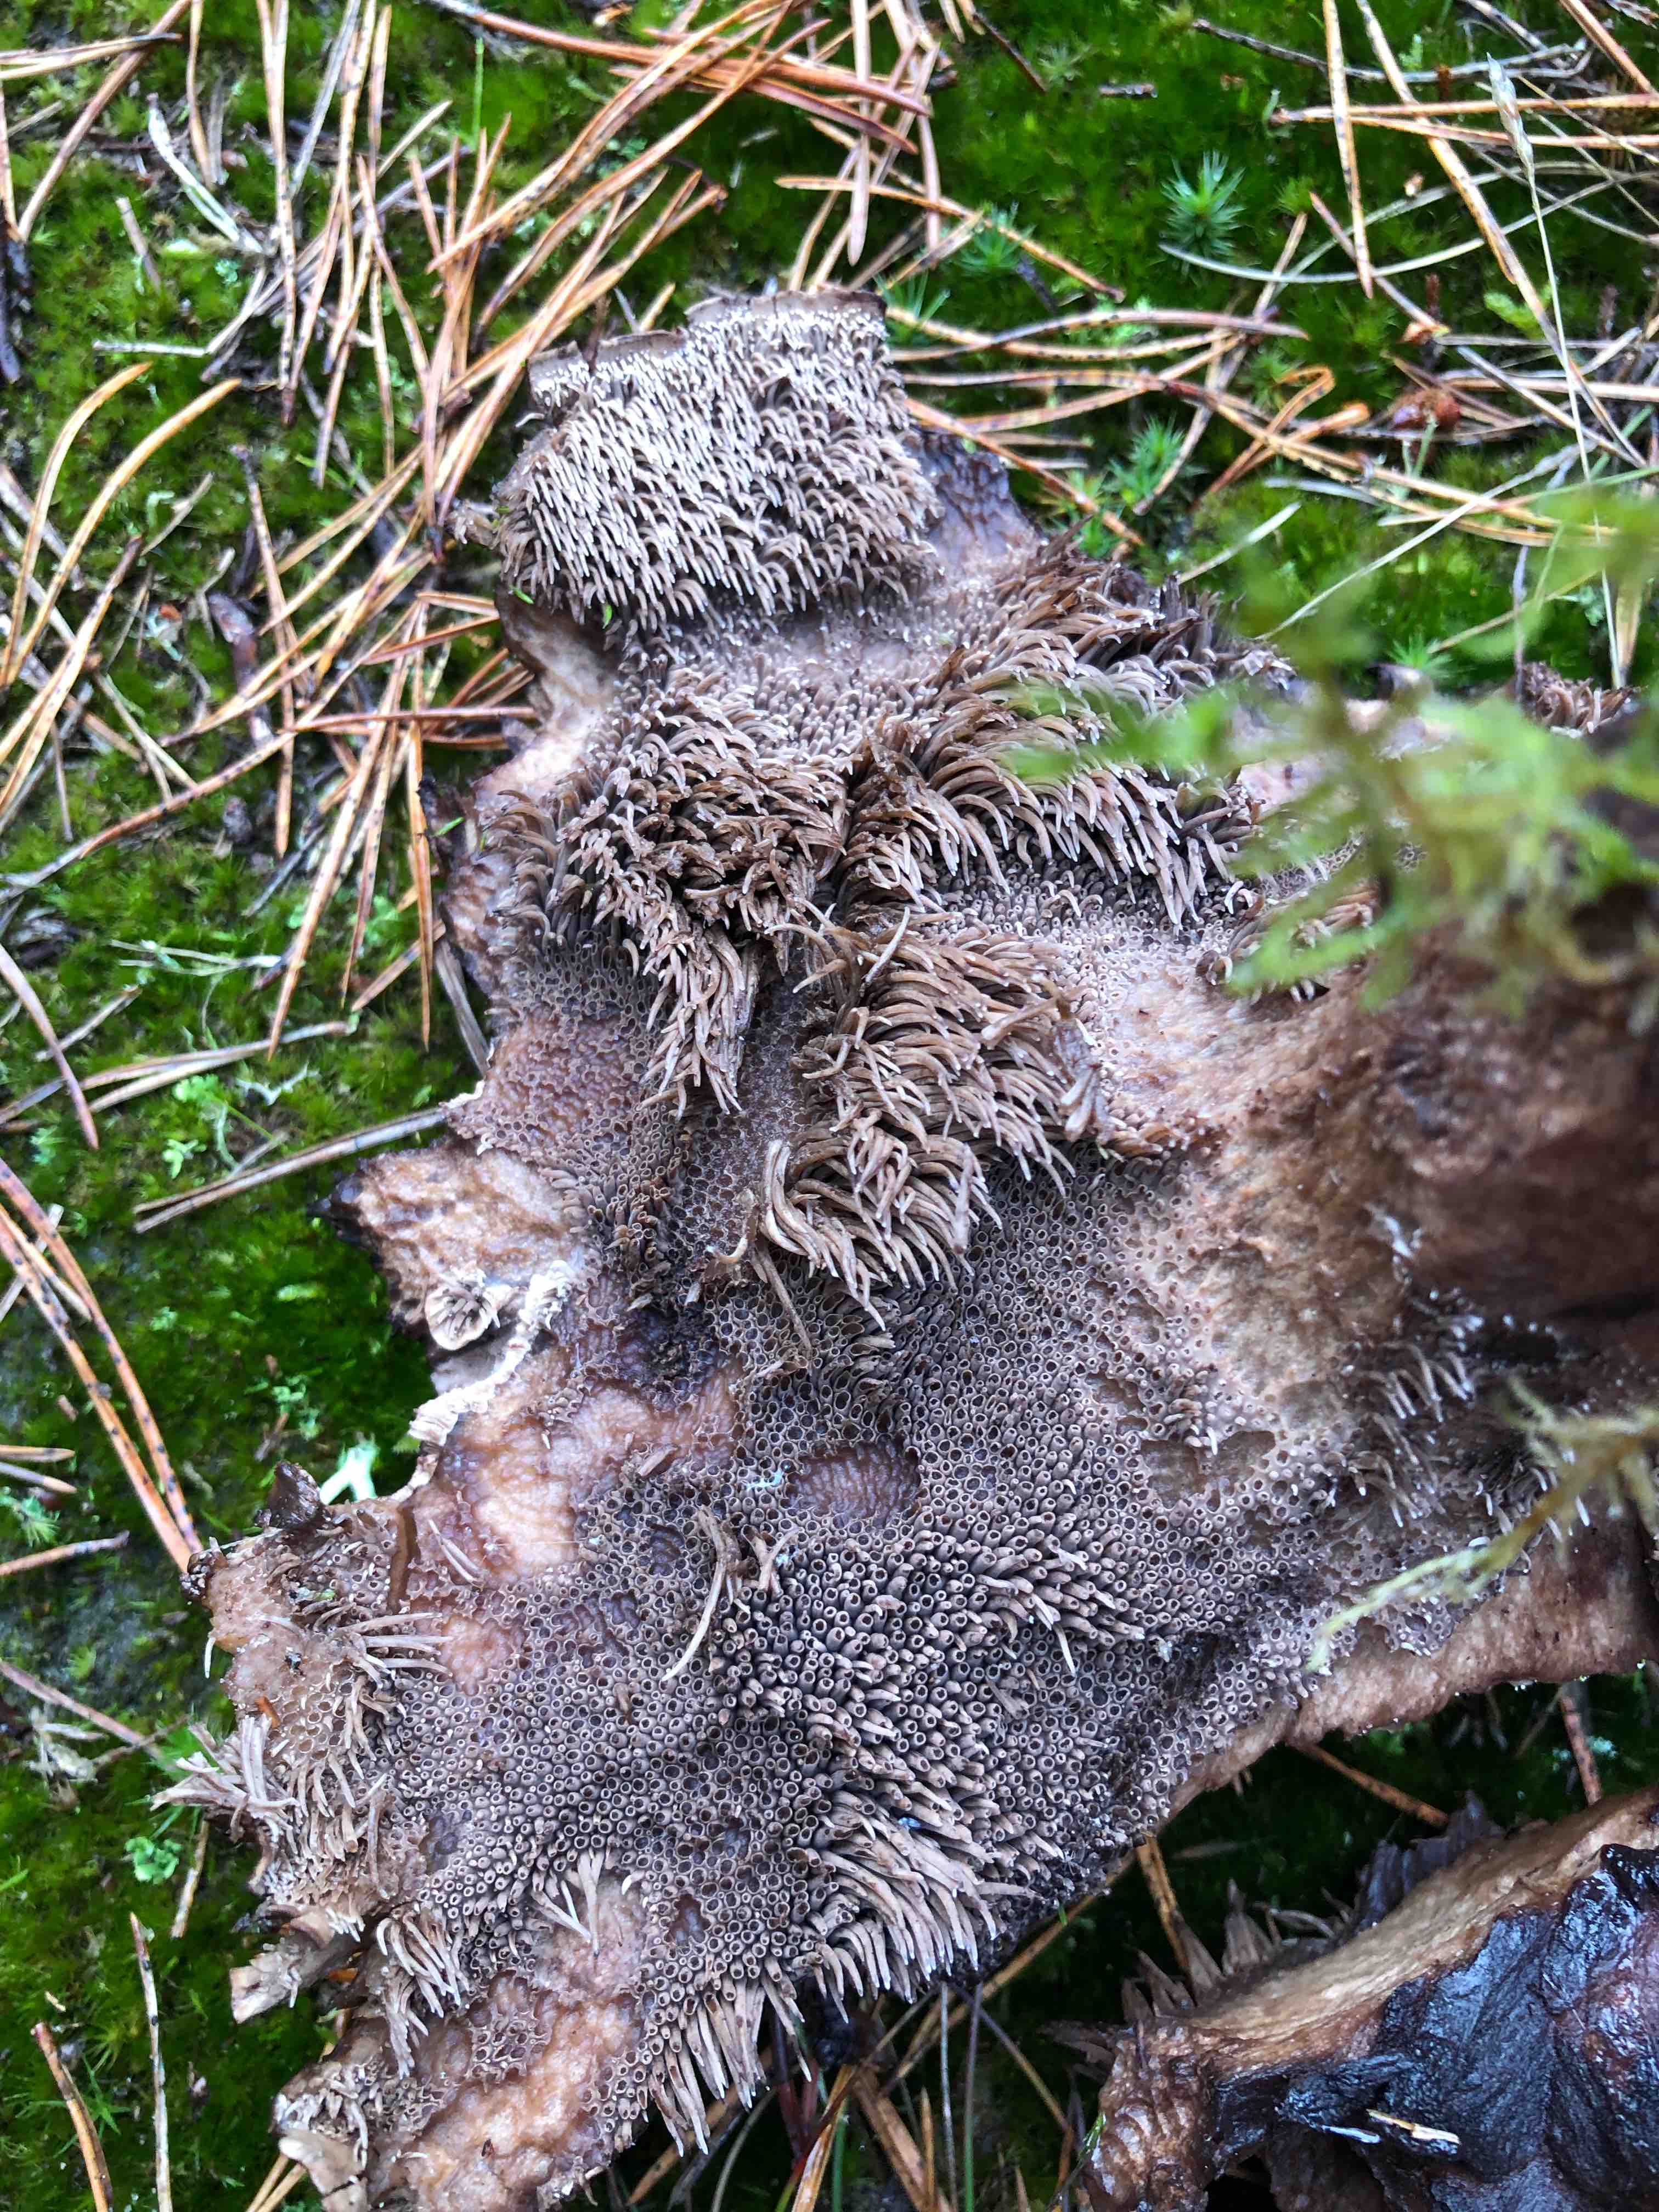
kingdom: Fungi
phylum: Basidiomycota
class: Agaricomycetes
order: Thelephorales
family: Bankeraceae
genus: Sarcodon
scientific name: Sarcodon
